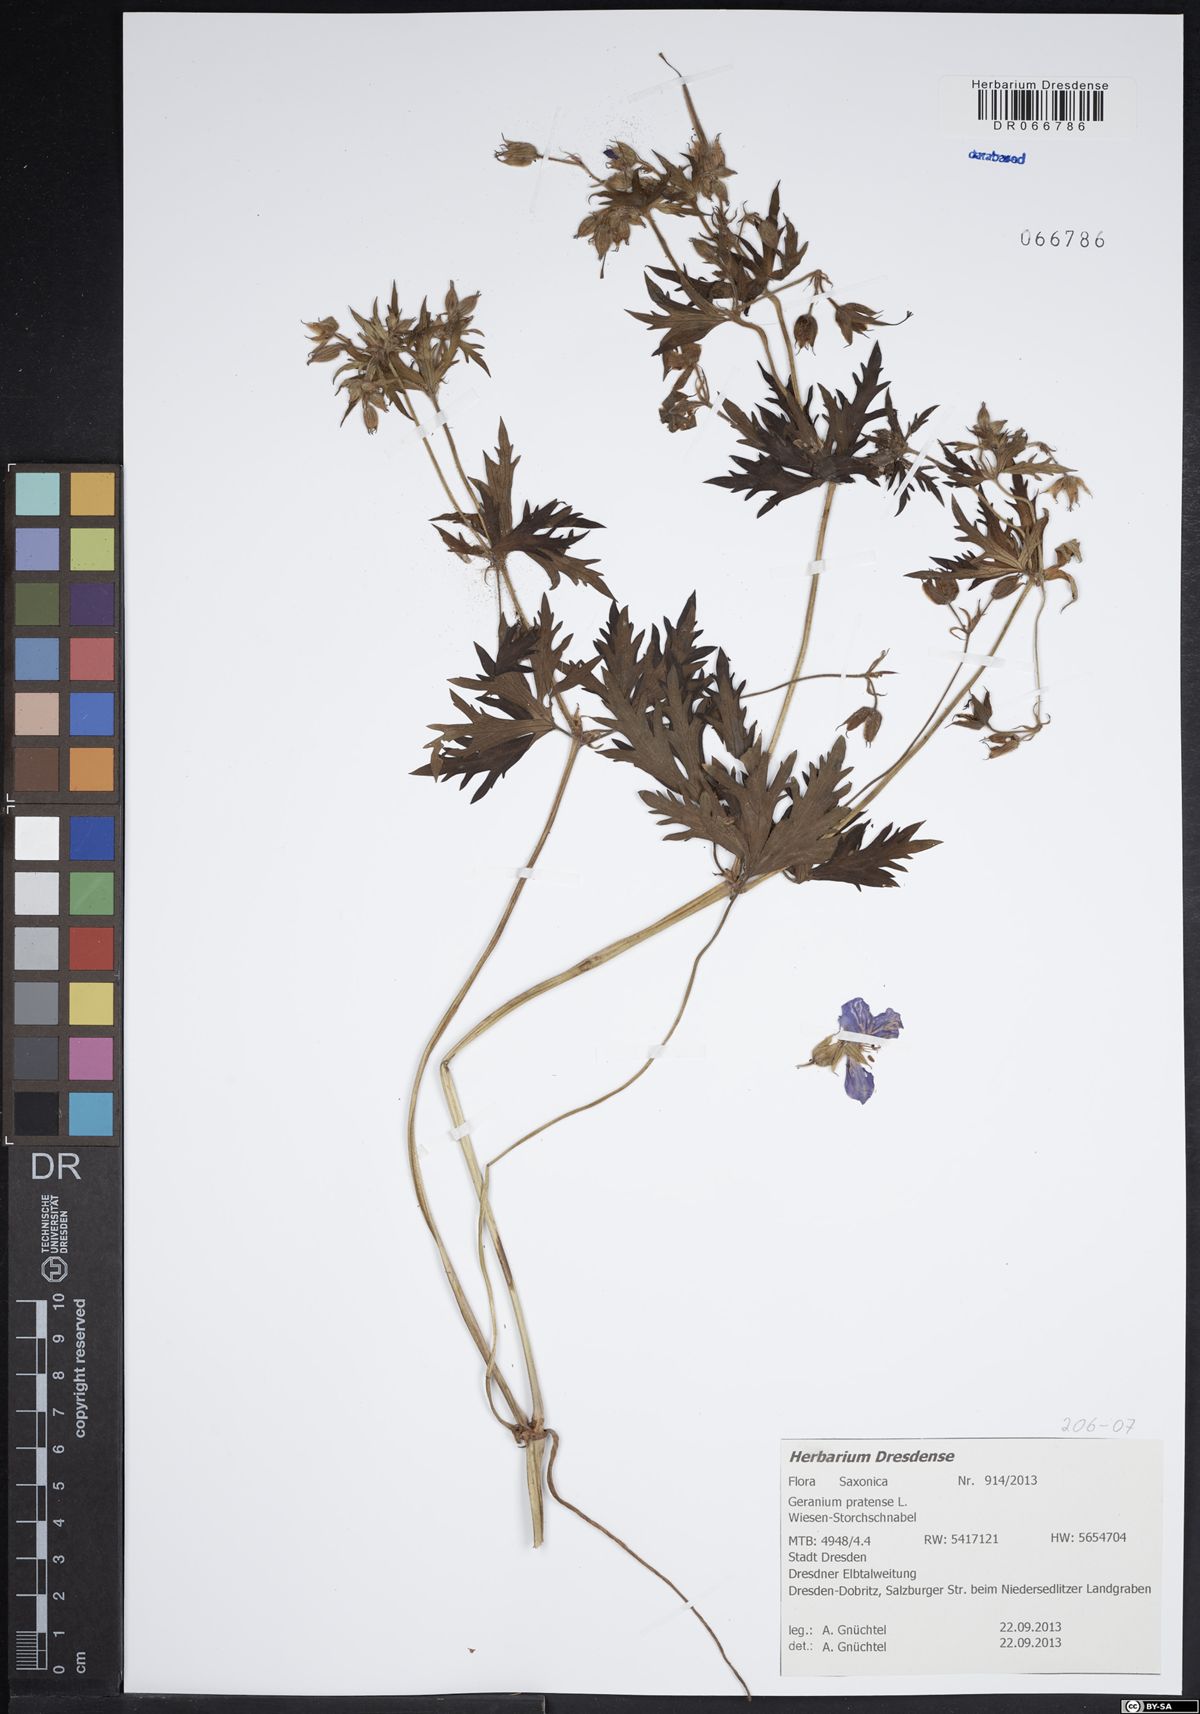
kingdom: Plantae
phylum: Tracheophyta
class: Magnoliopsida
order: Geraniales
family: Geraniaceae
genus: Geranium
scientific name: Geranium pratense
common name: Meadow crane's-bill
